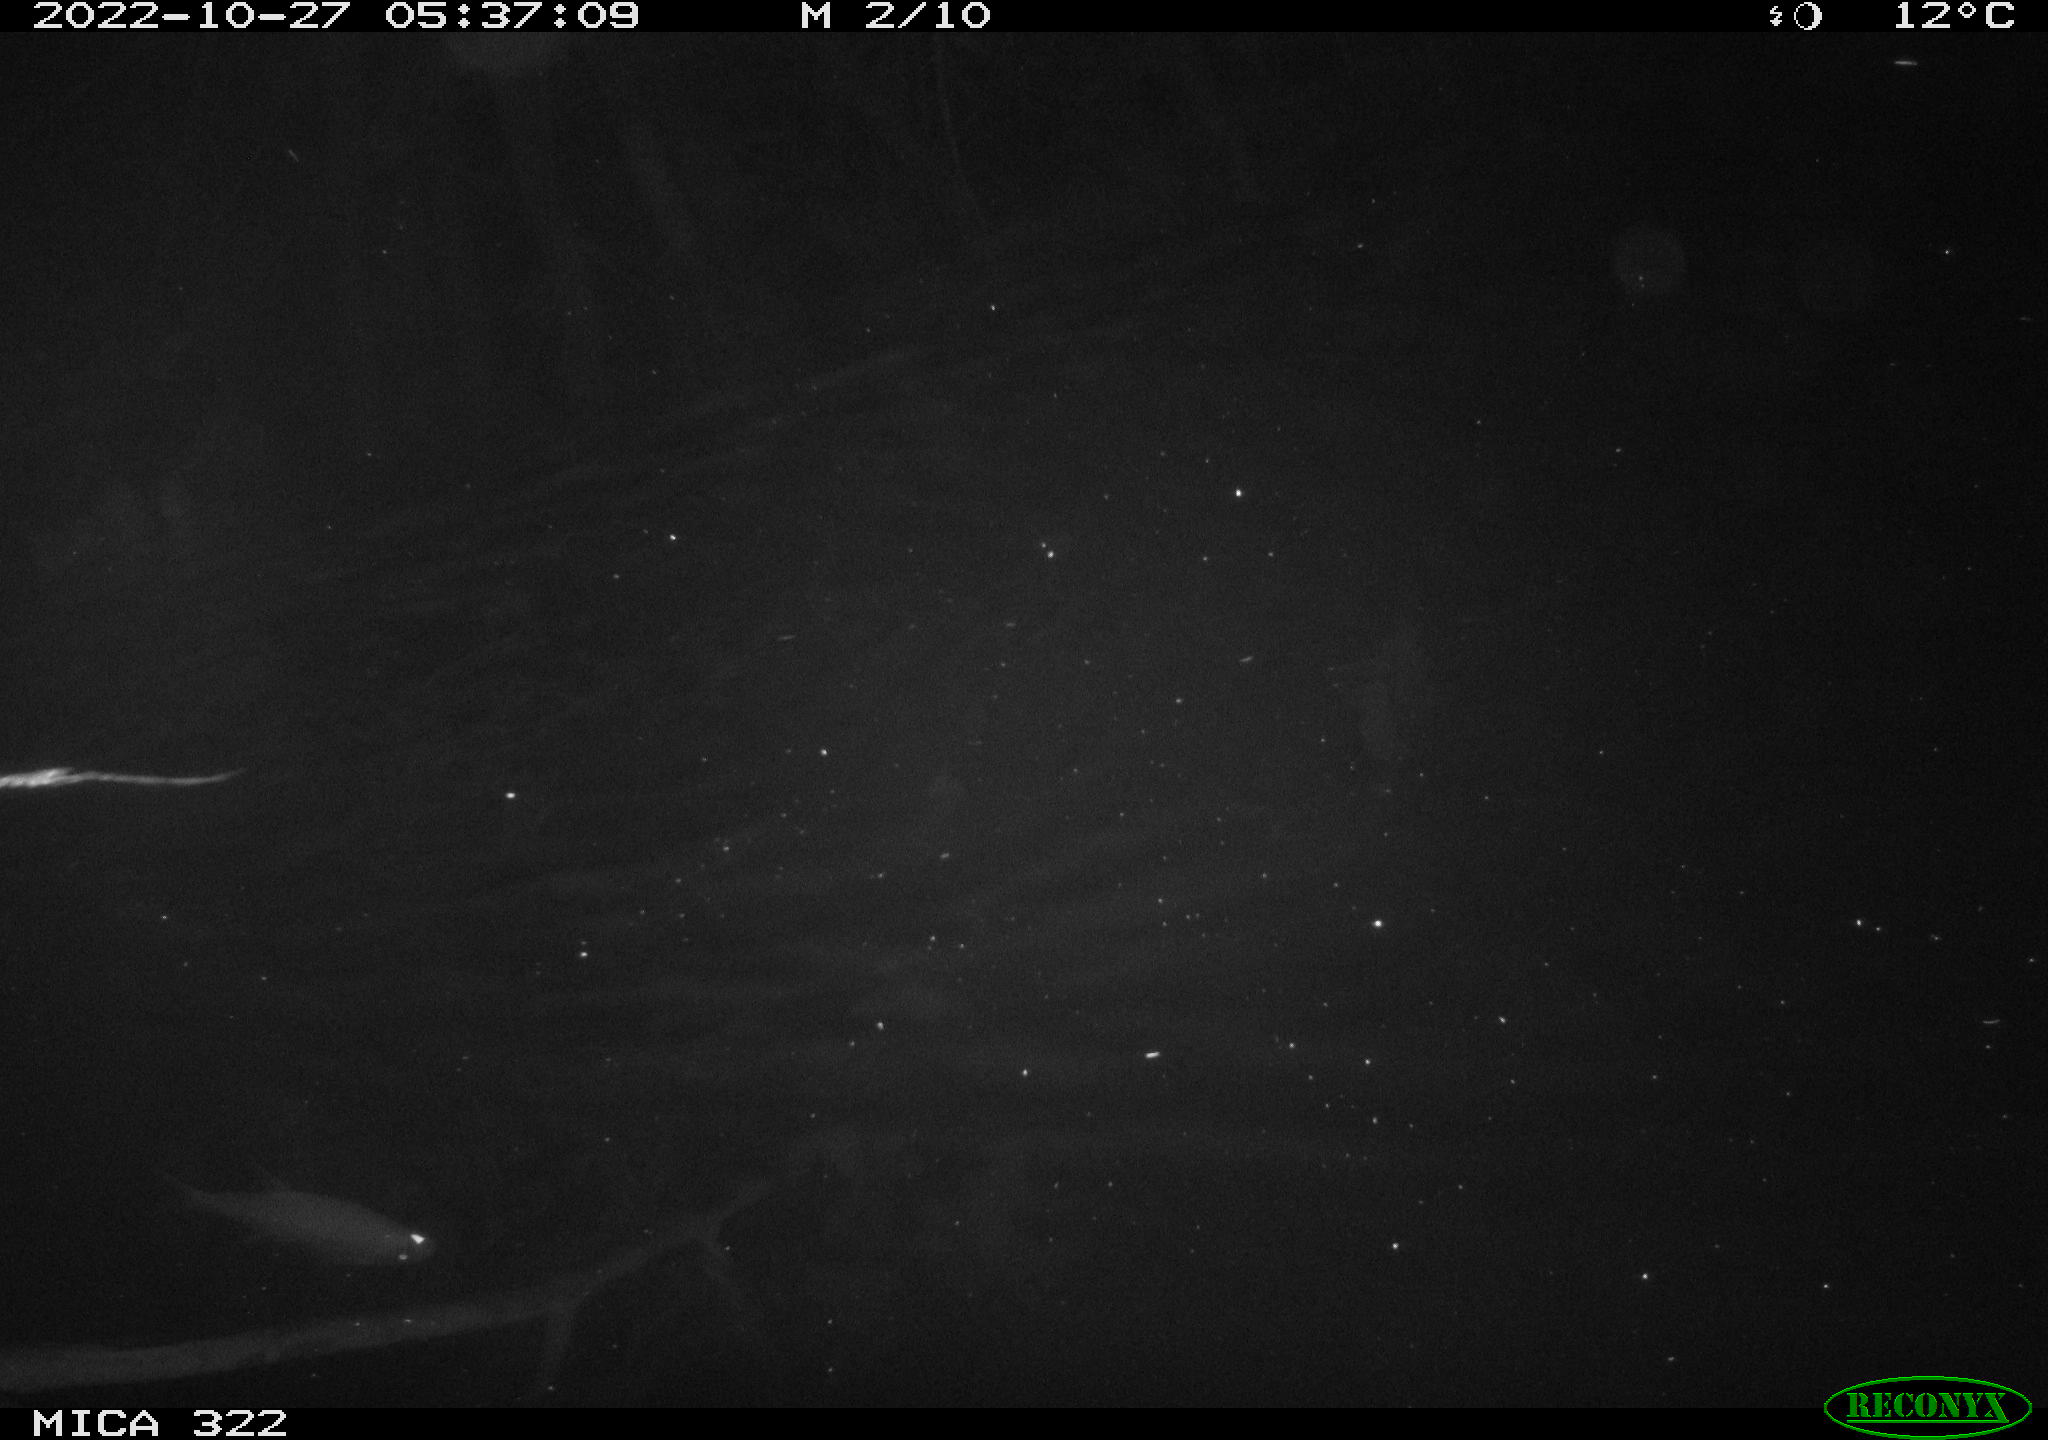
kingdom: Animalia
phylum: Chordata
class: Mammalia
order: Rodentia
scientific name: Rodentia
